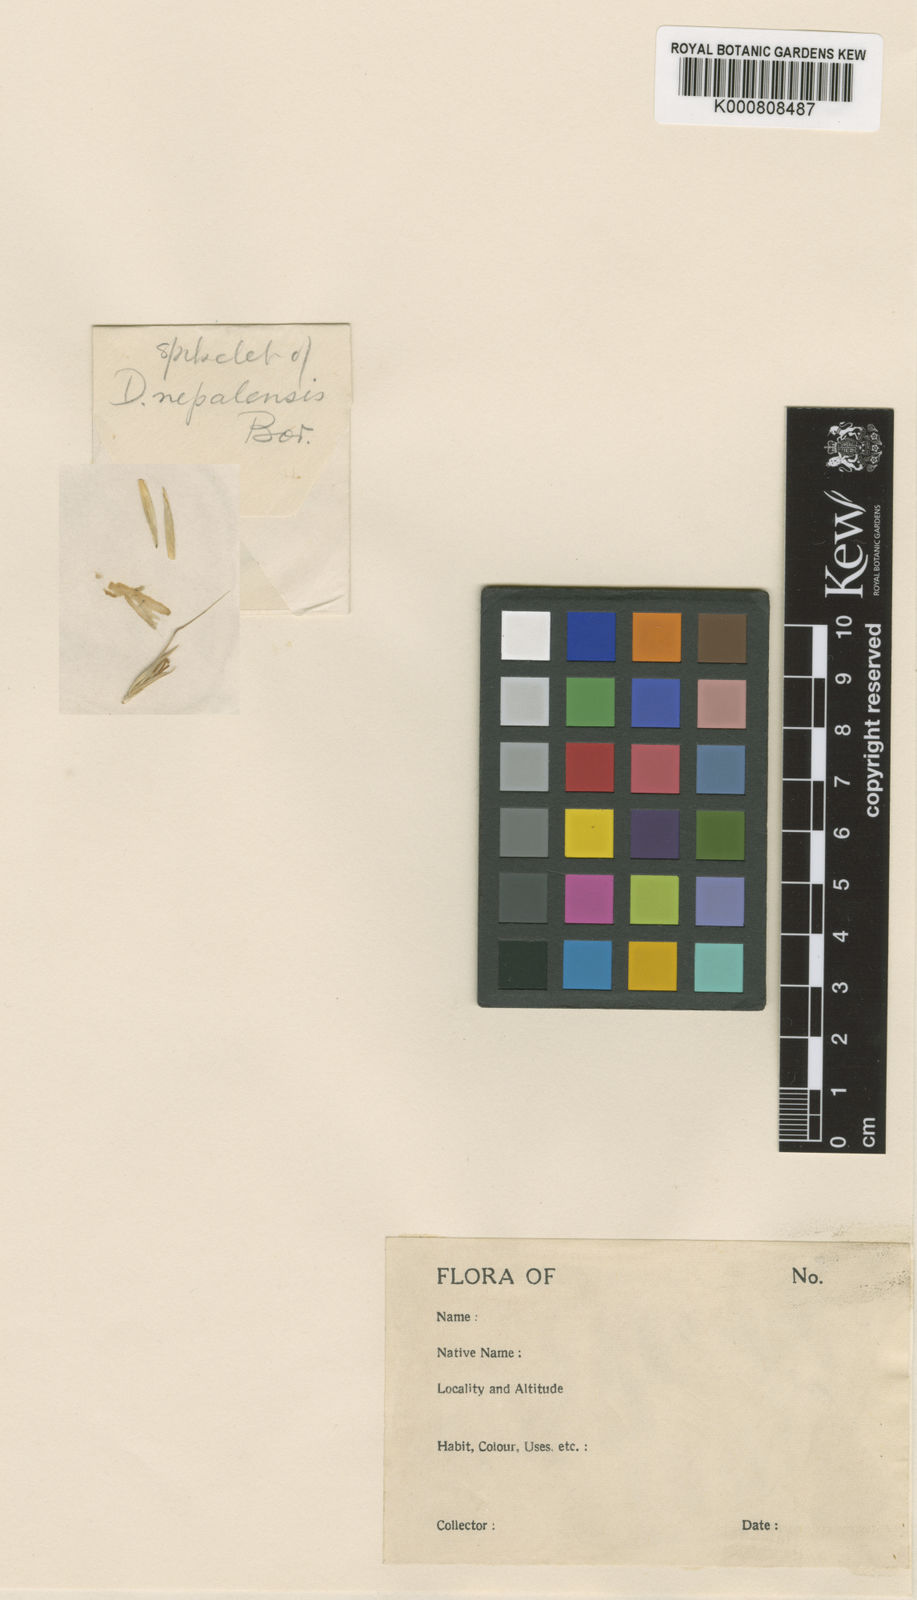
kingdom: Plantae
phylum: Tracheophyta
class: Liliopsida
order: Poales
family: Poaceae
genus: Duthiea
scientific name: Duthiea brachypodium
